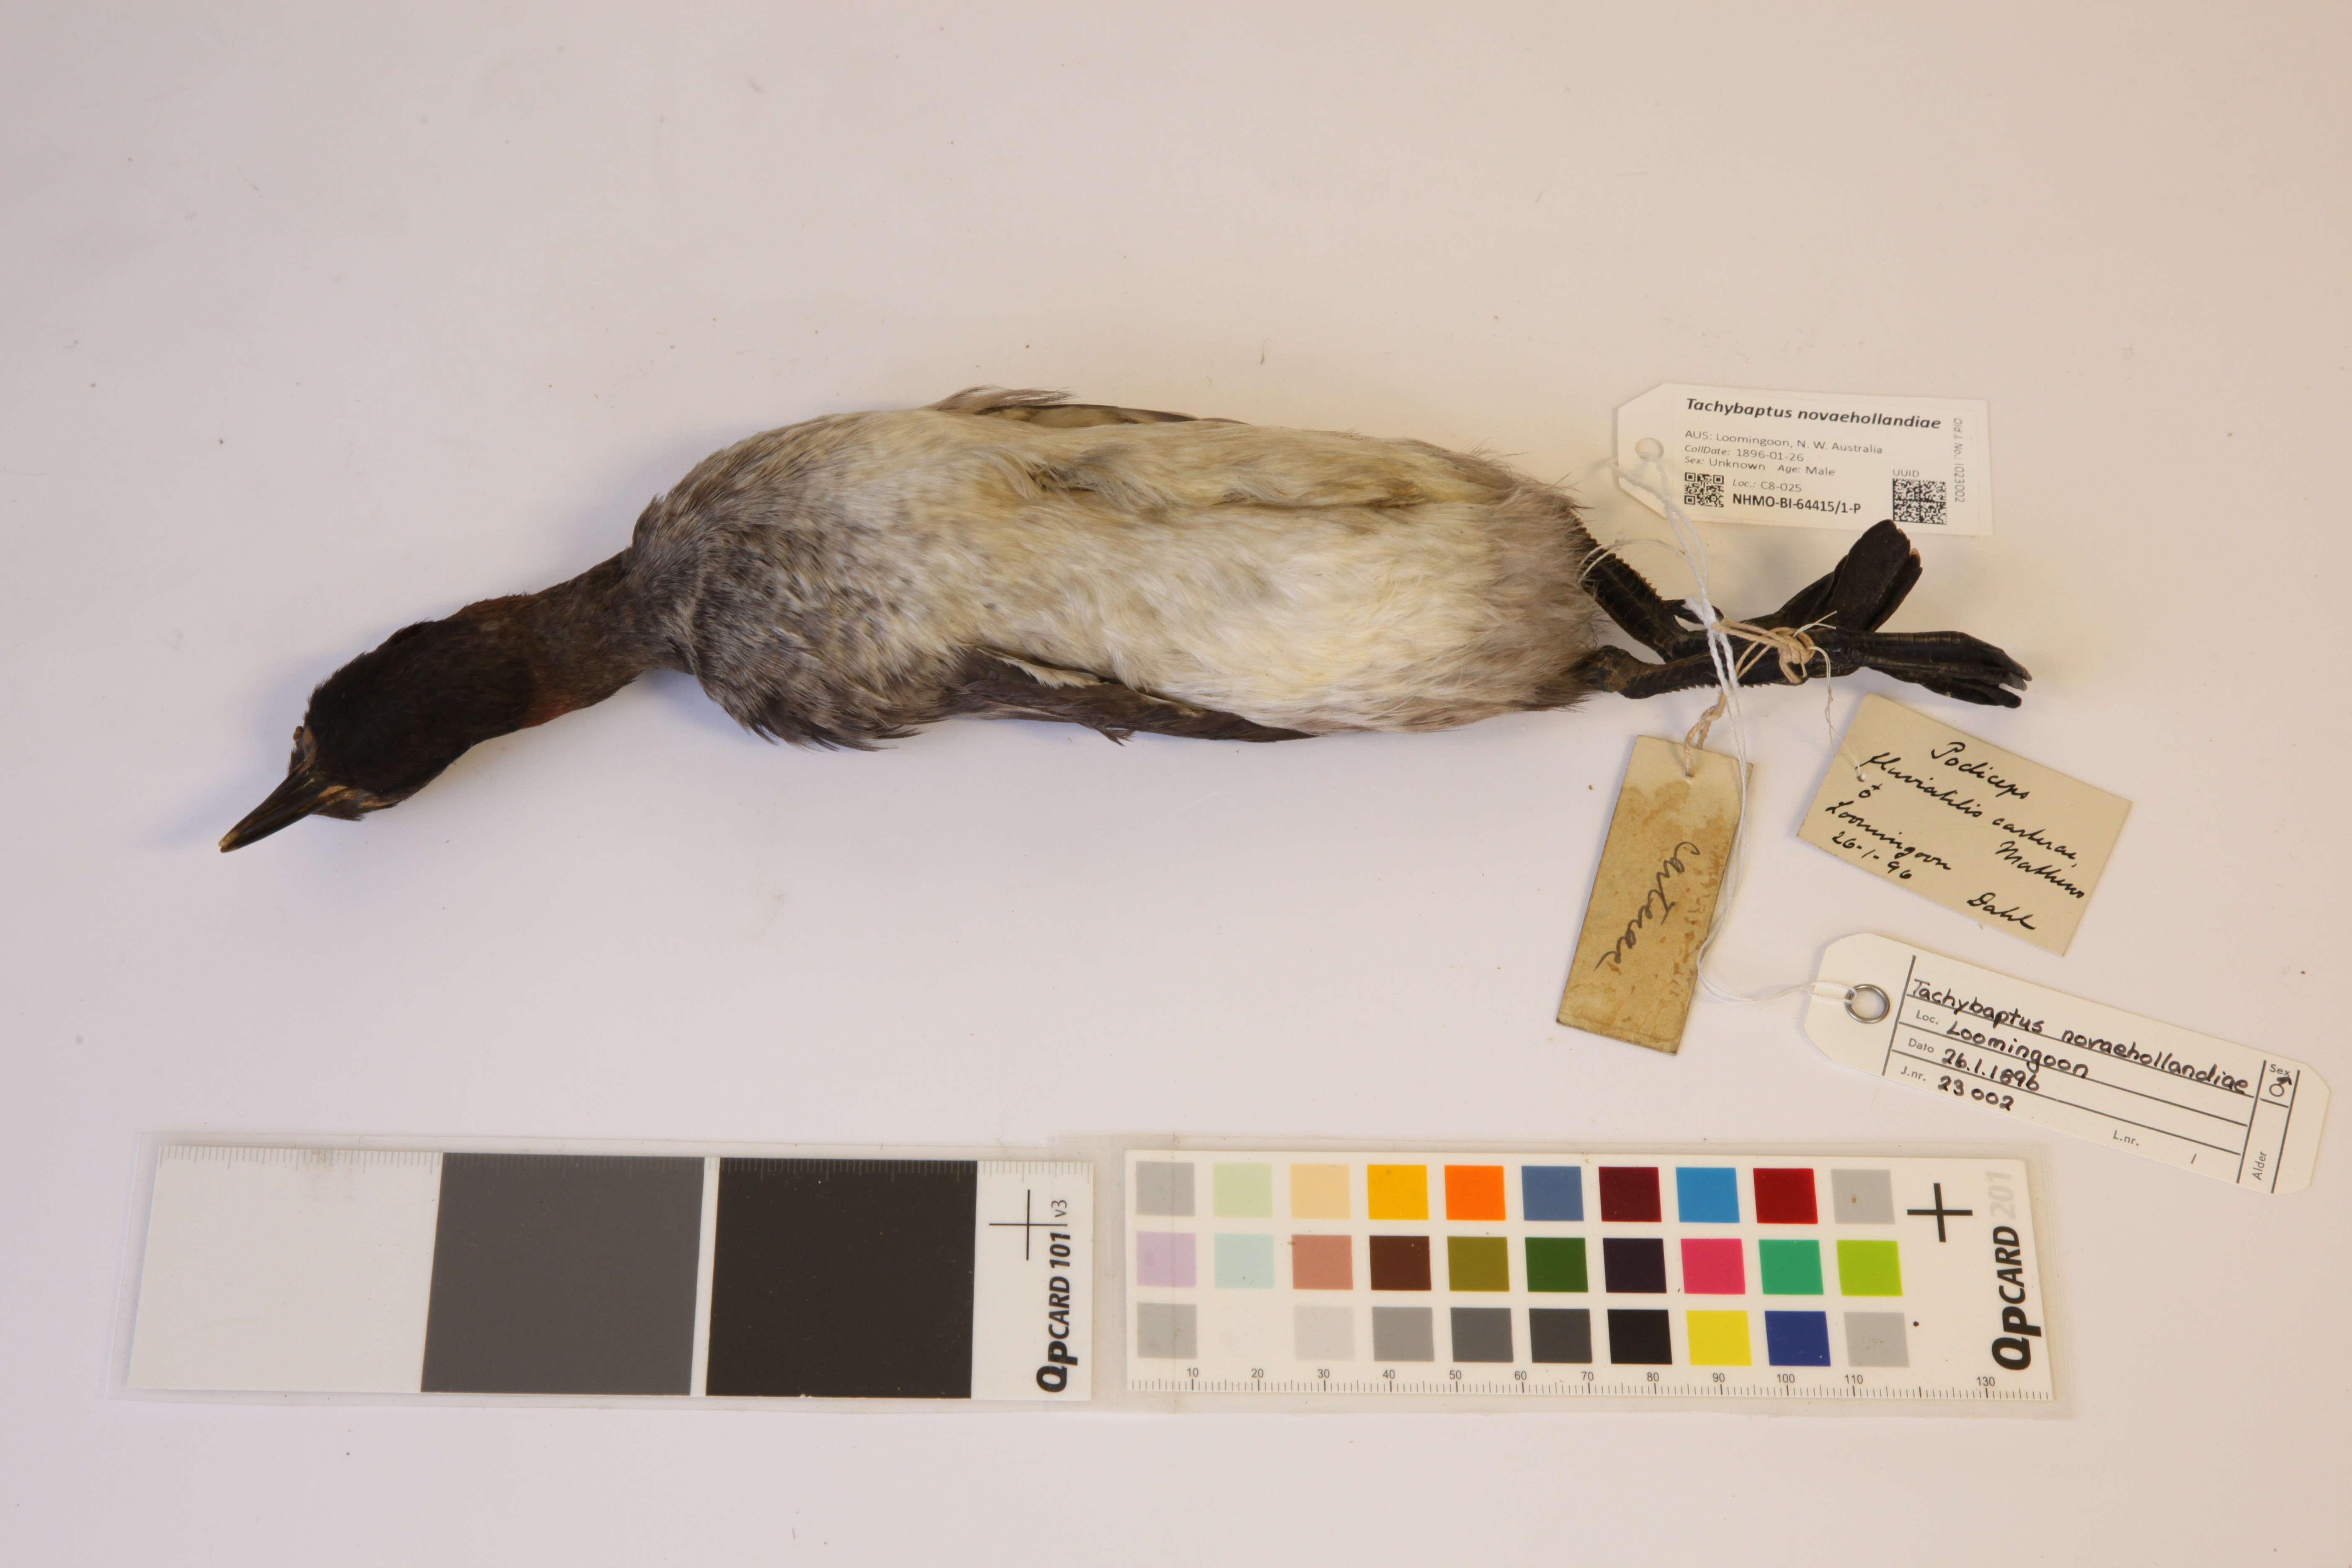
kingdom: Animalia
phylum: Chordata
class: Aves
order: Podicipediformes
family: Podicipedidae
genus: Tachybaptus
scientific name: Tachybaptus novaehollandiae
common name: Australasian grebe
